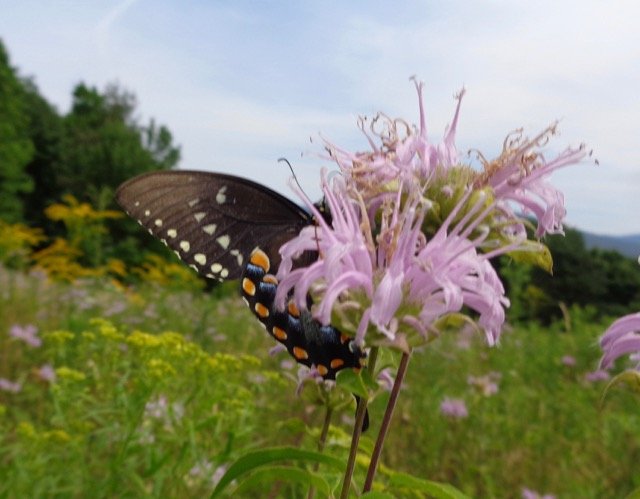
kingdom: Animalia
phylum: Arthropoda
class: Insecta
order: Lepidoptera
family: Papilionidae
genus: Pterourus
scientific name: Pterourus troilus
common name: Spicebush Swallowtail
